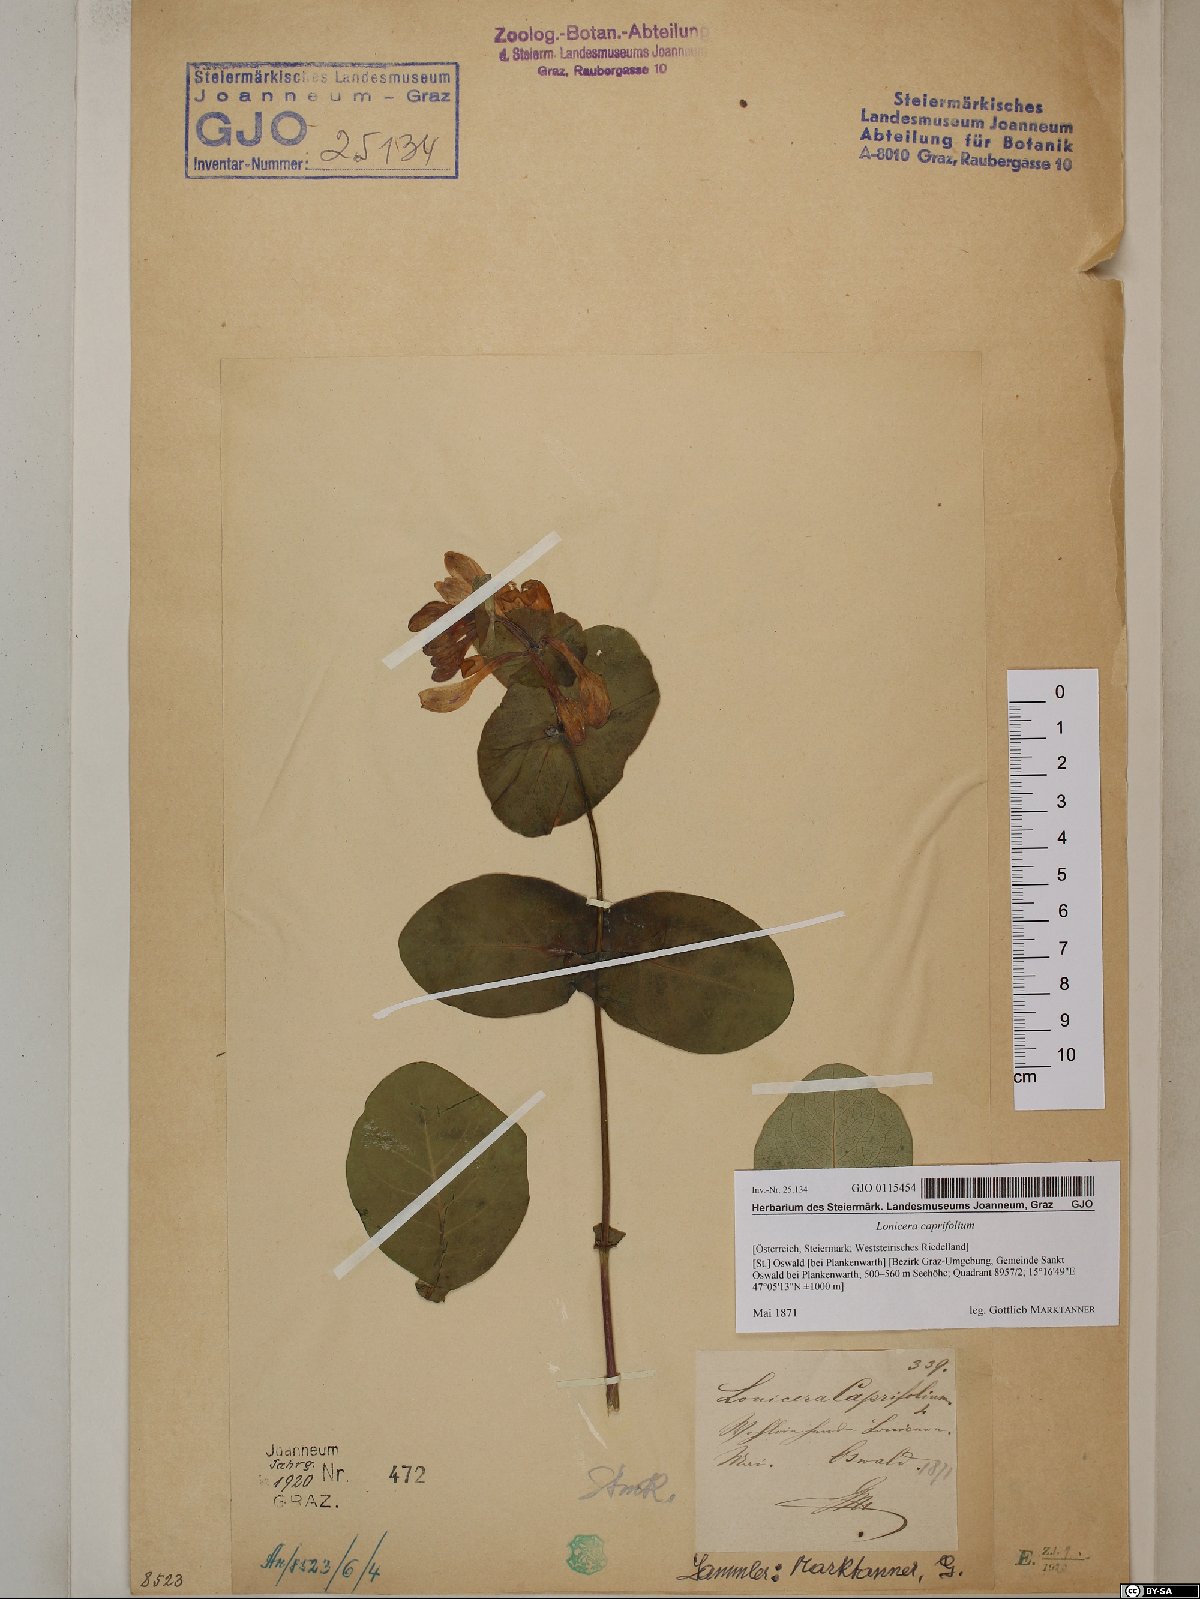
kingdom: Plantae
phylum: Tracheophyta
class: Magnoliopsida
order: Dipsacales
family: Caprifoliaceae
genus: Lonicera
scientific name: Lonicera caprifolium
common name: Perfoliate honeysuckle
